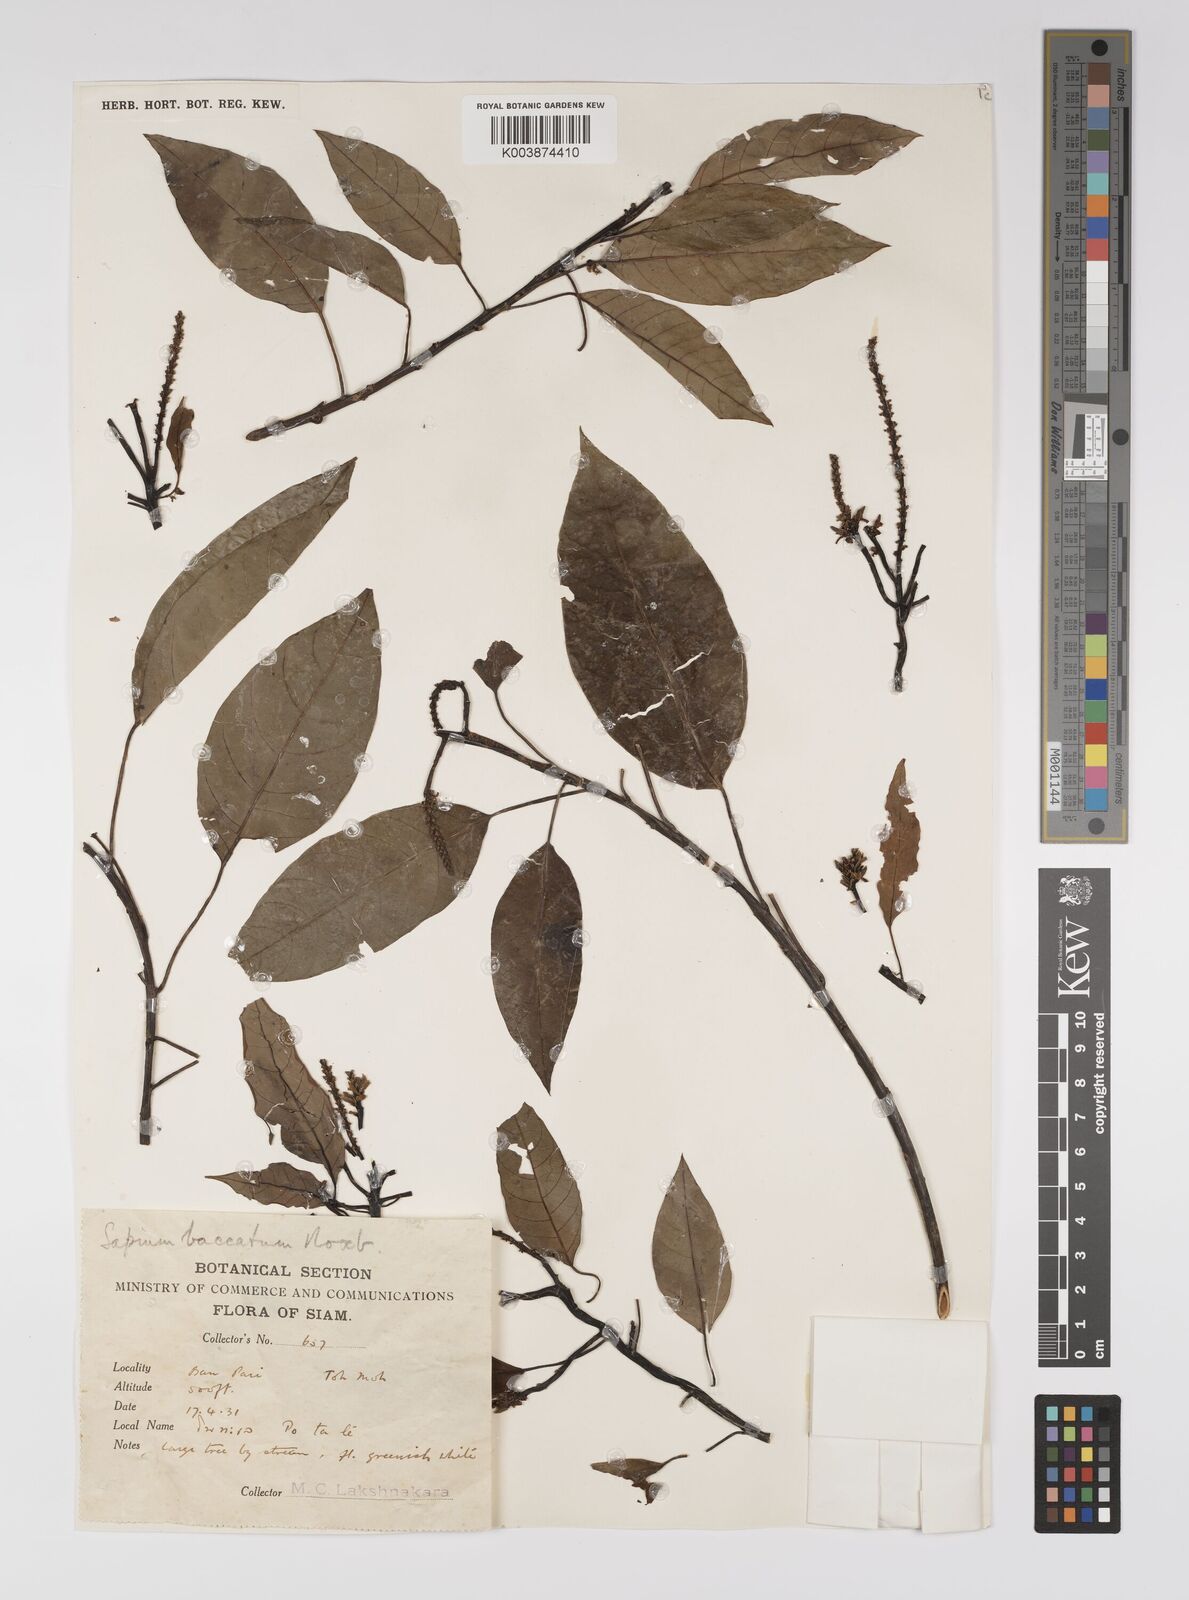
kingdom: Plantae
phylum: Tracheophyta
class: Magnoliopsida
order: Malpighiales
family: Euphorbiaceae
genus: Balakata
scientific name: Balakata baccata
